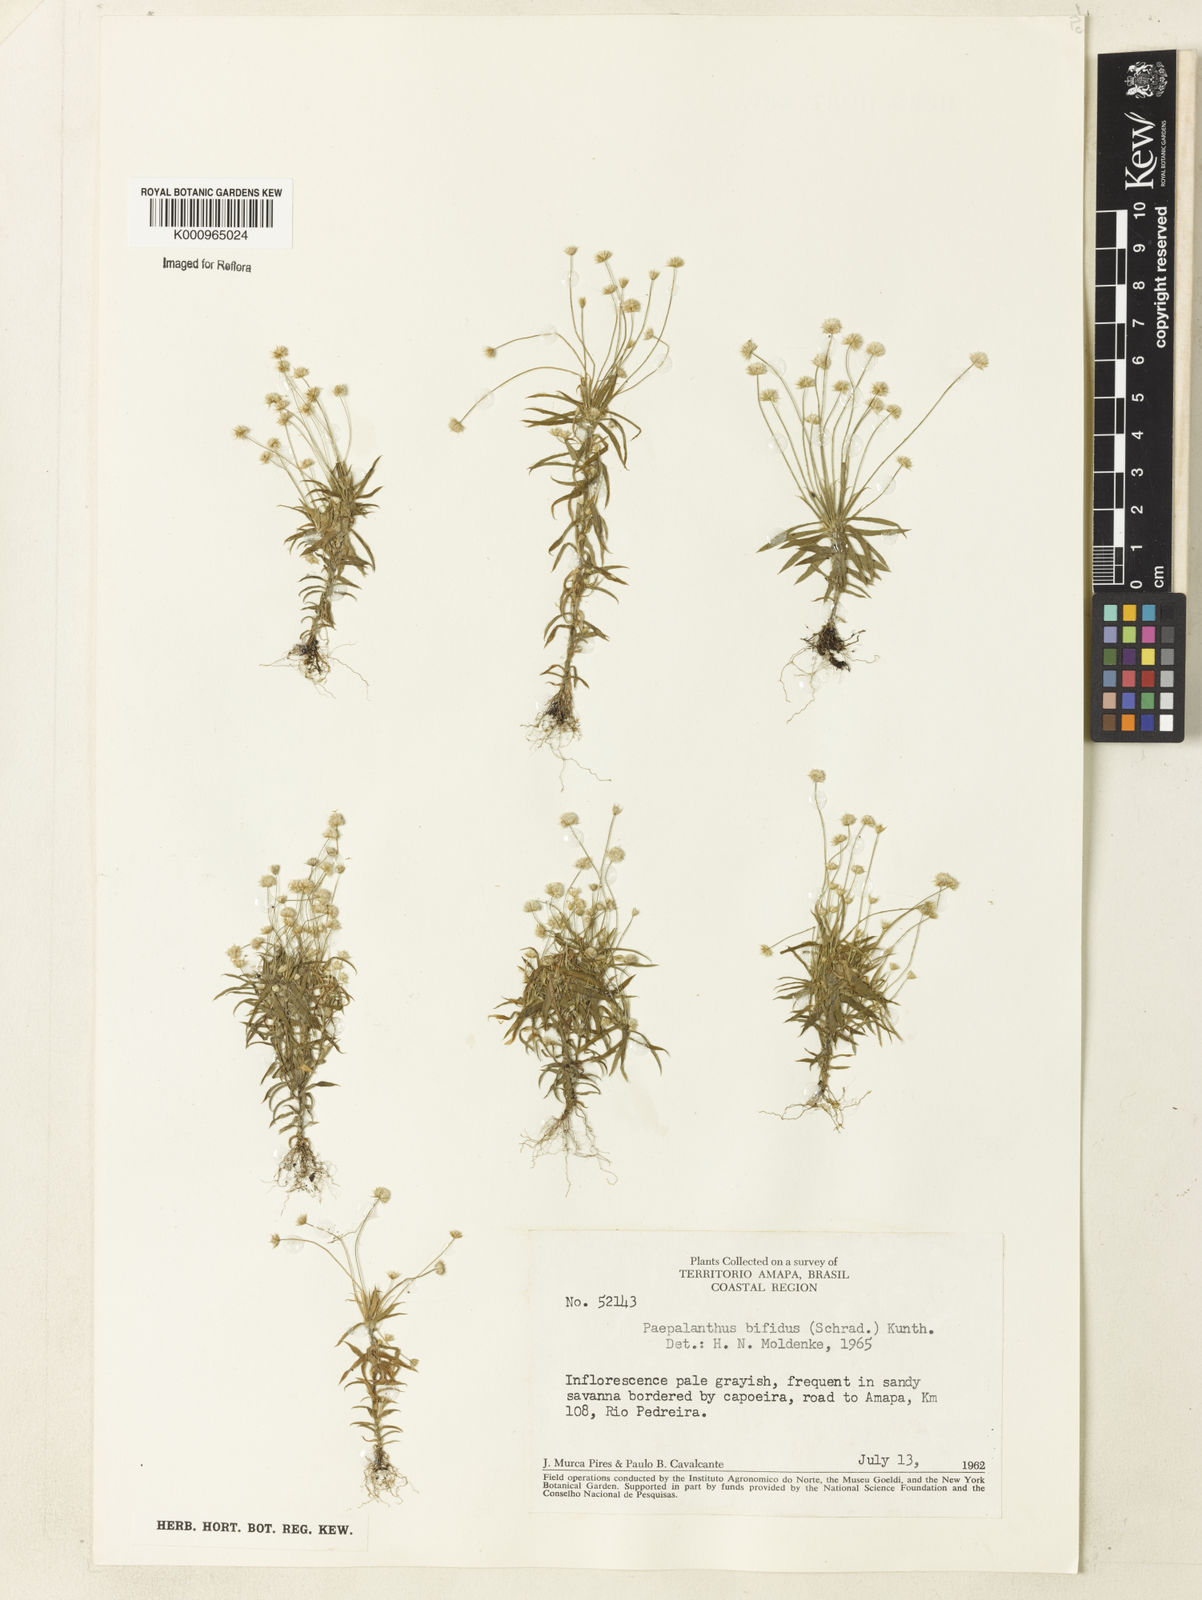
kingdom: Plantae
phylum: Tracheophyta
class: Liliopsida
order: Poales
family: Eriocaulaceae
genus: Paepalanthus
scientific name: Paepalanthus bifidus
